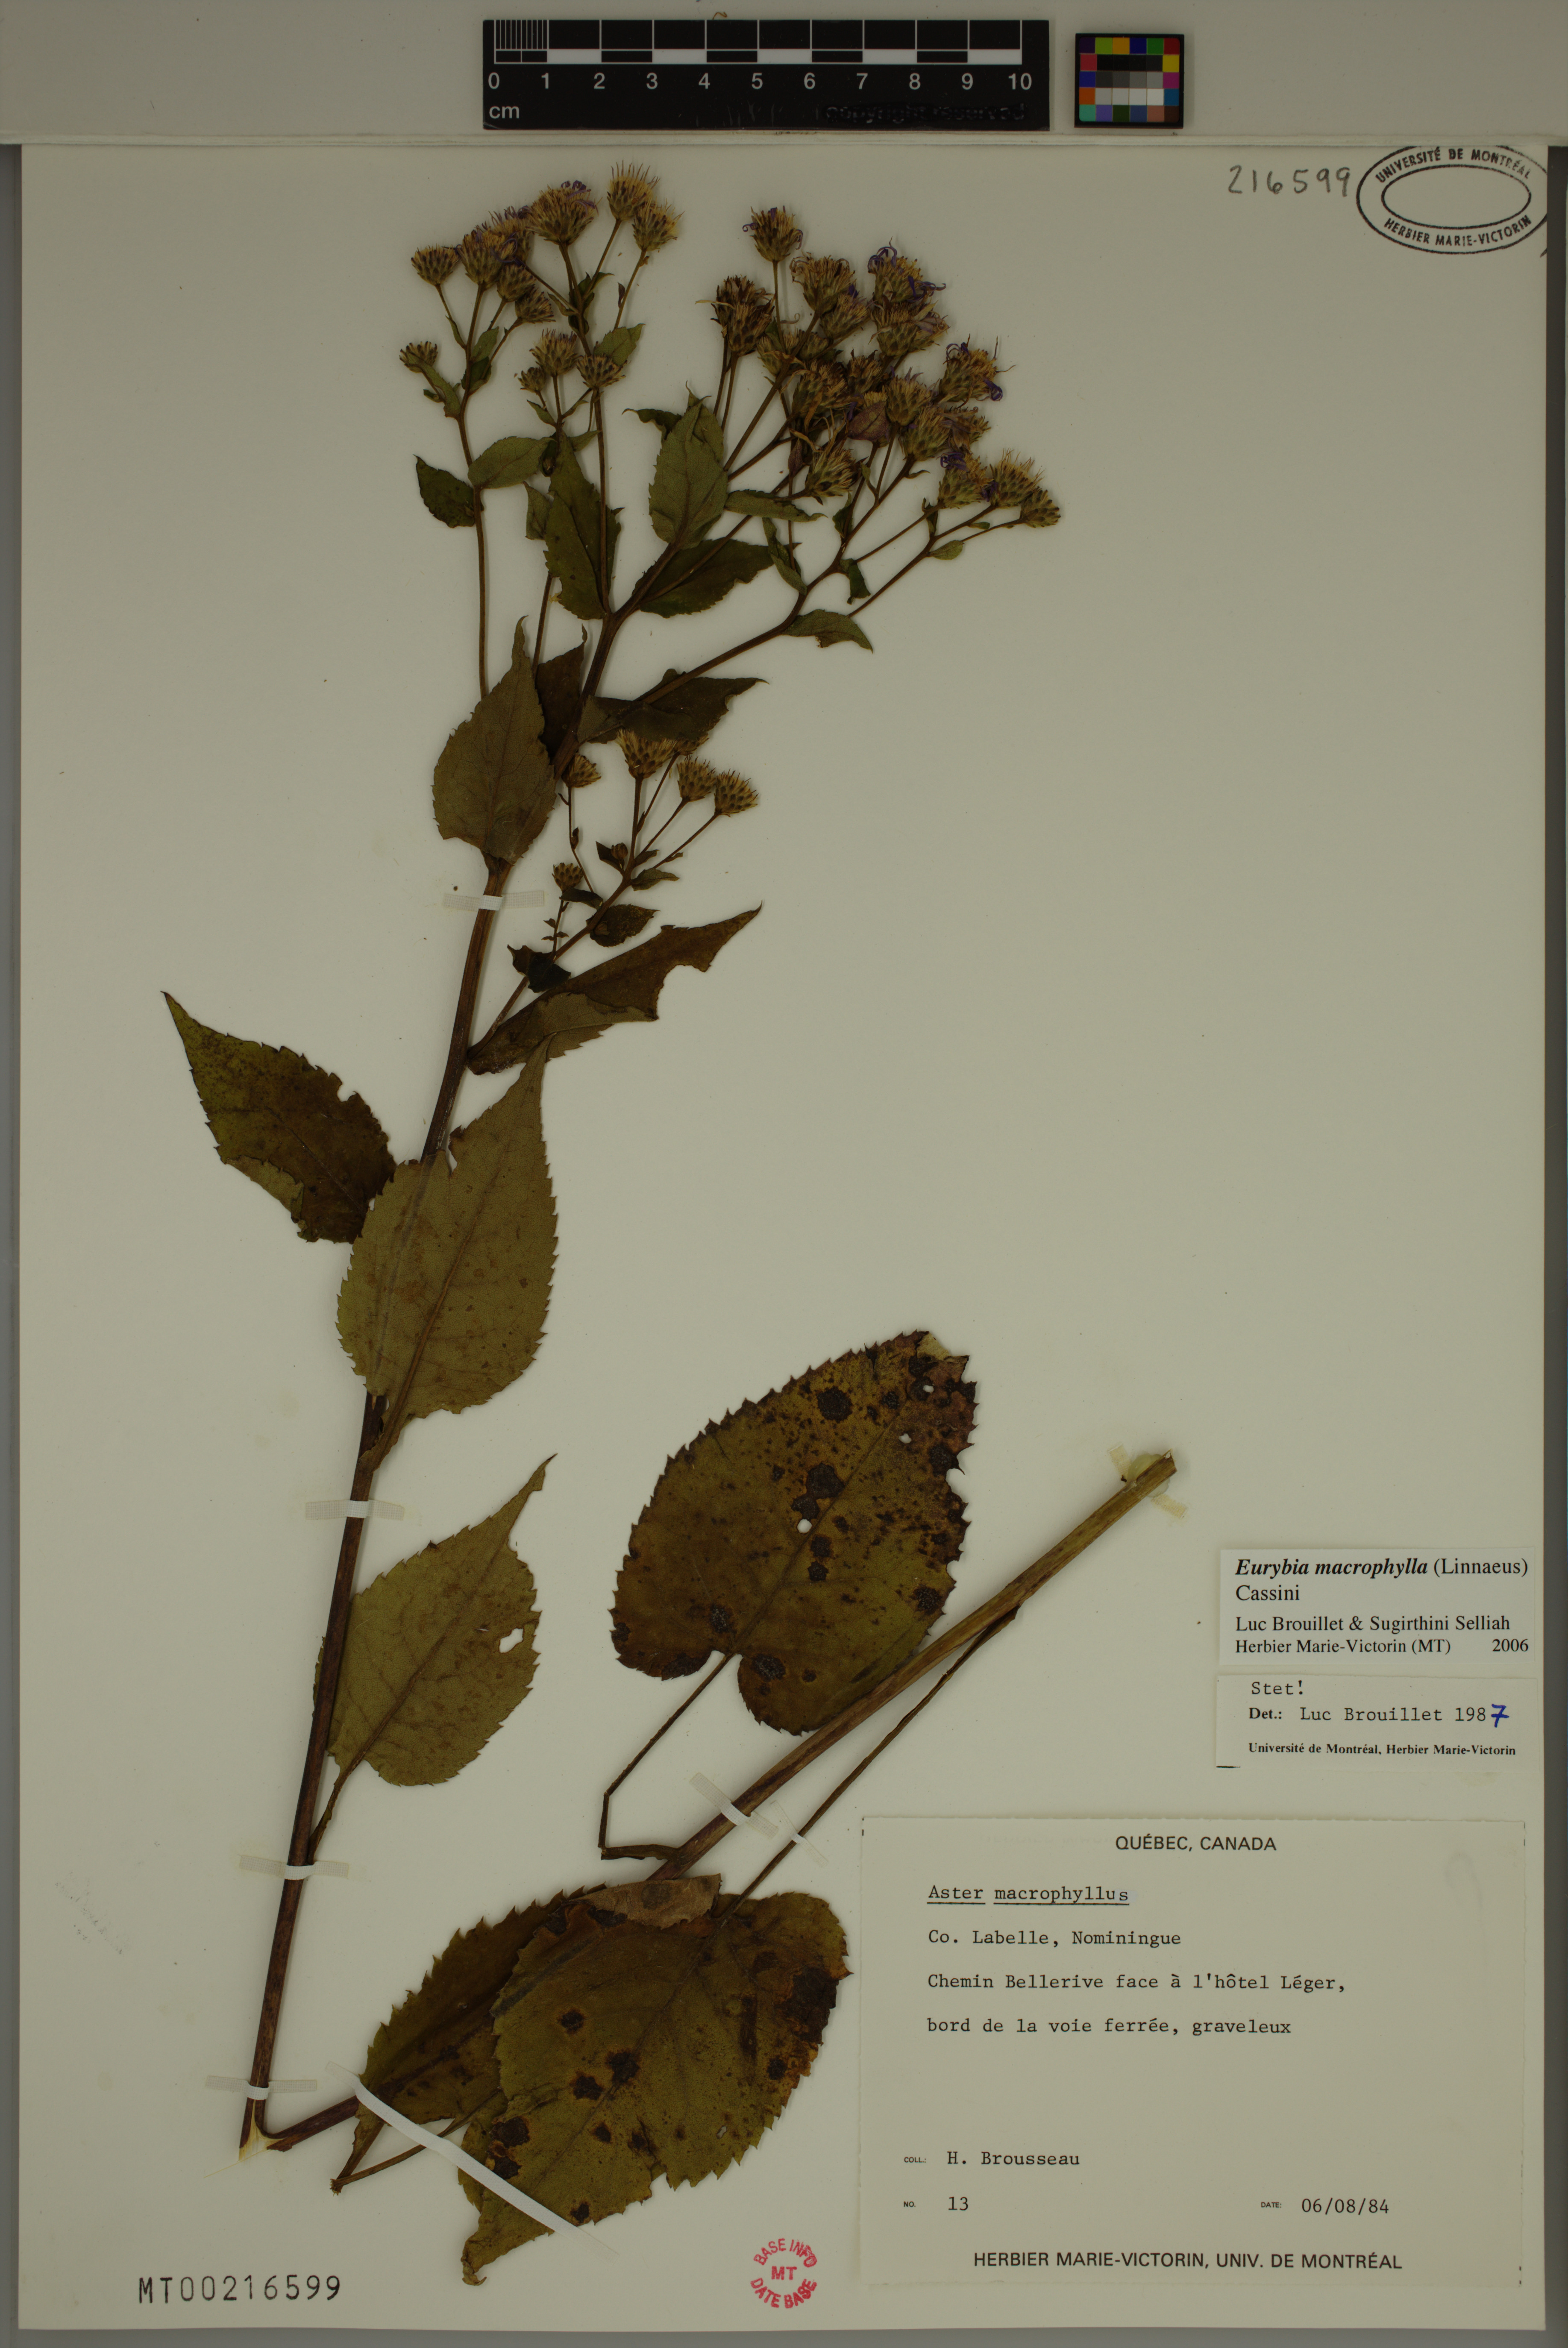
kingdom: Plantae
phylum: Tracheophyta
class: Magnoliopsida
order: Asterales
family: Asteraceae
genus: Eurybia
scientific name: Eurybia macrophylla
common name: Big-leaved aster
